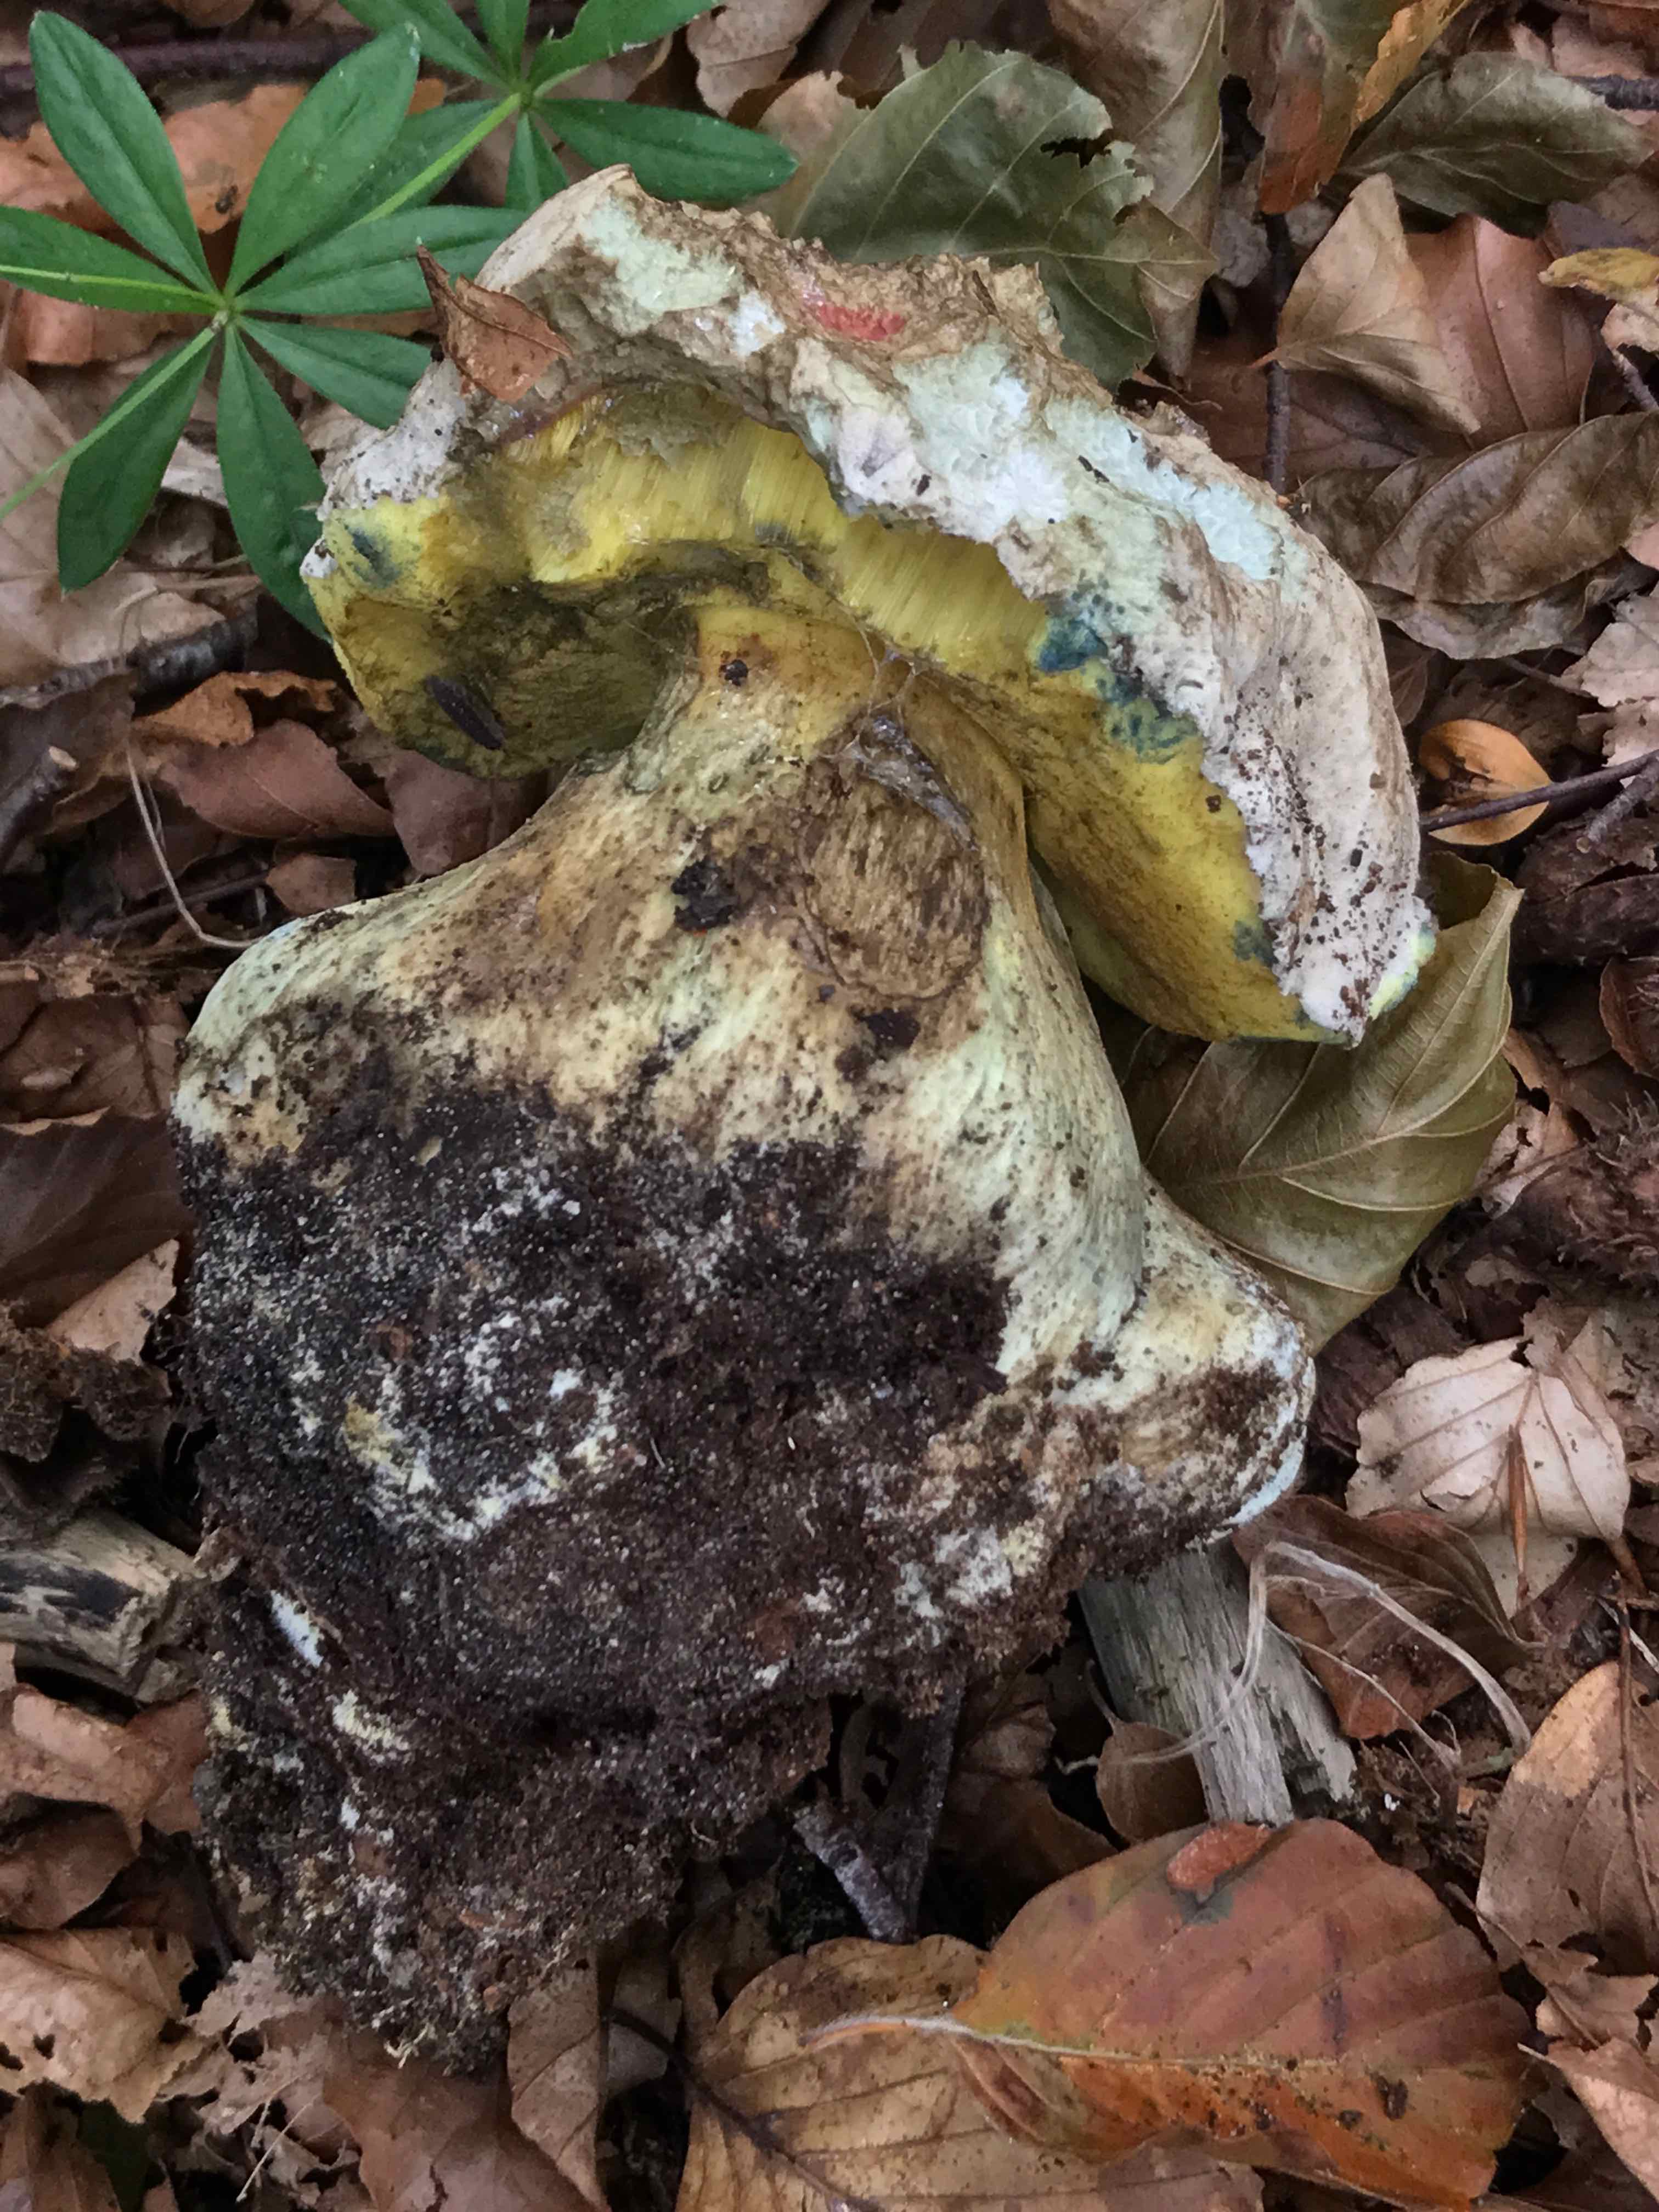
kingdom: Fungi
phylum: Basidiomycota
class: Agaricomycetes
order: Boletales
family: Boletaceae
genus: Caloboletus
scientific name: Caloboletus radicans
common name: rod-rørhat
